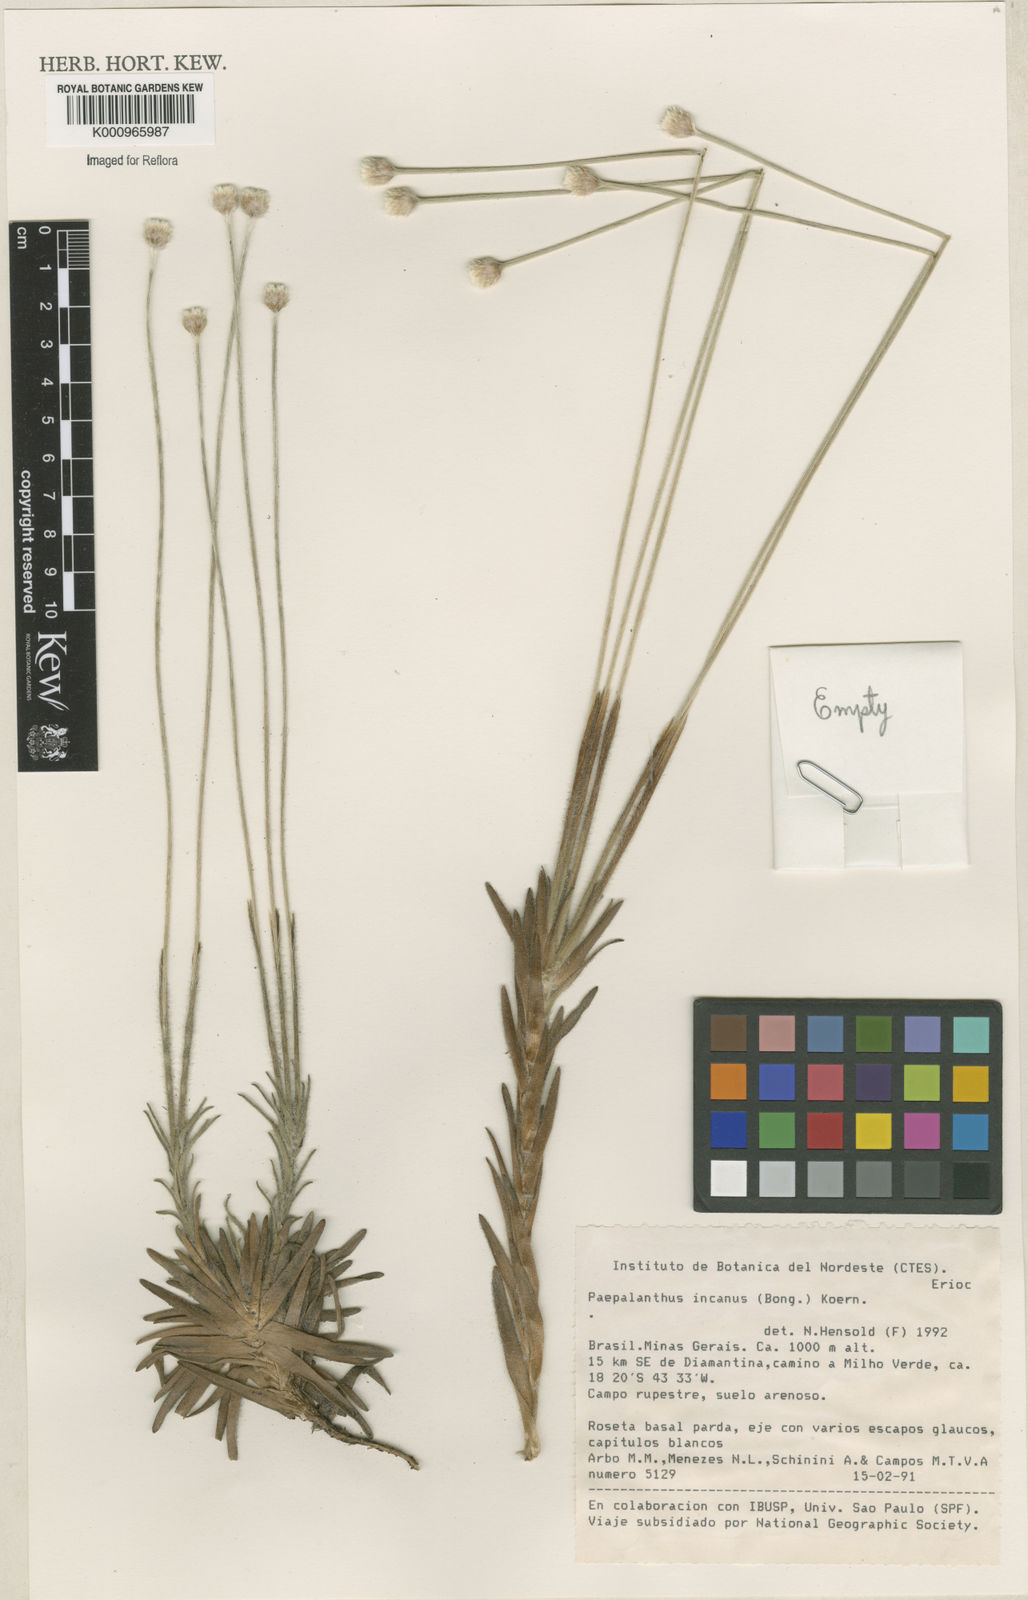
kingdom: Plantae
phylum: Tracheophyta
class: Liliopsida
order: Poales
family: Eriocaulaceae
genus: Paepalanthus
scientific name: Paepalanthus
